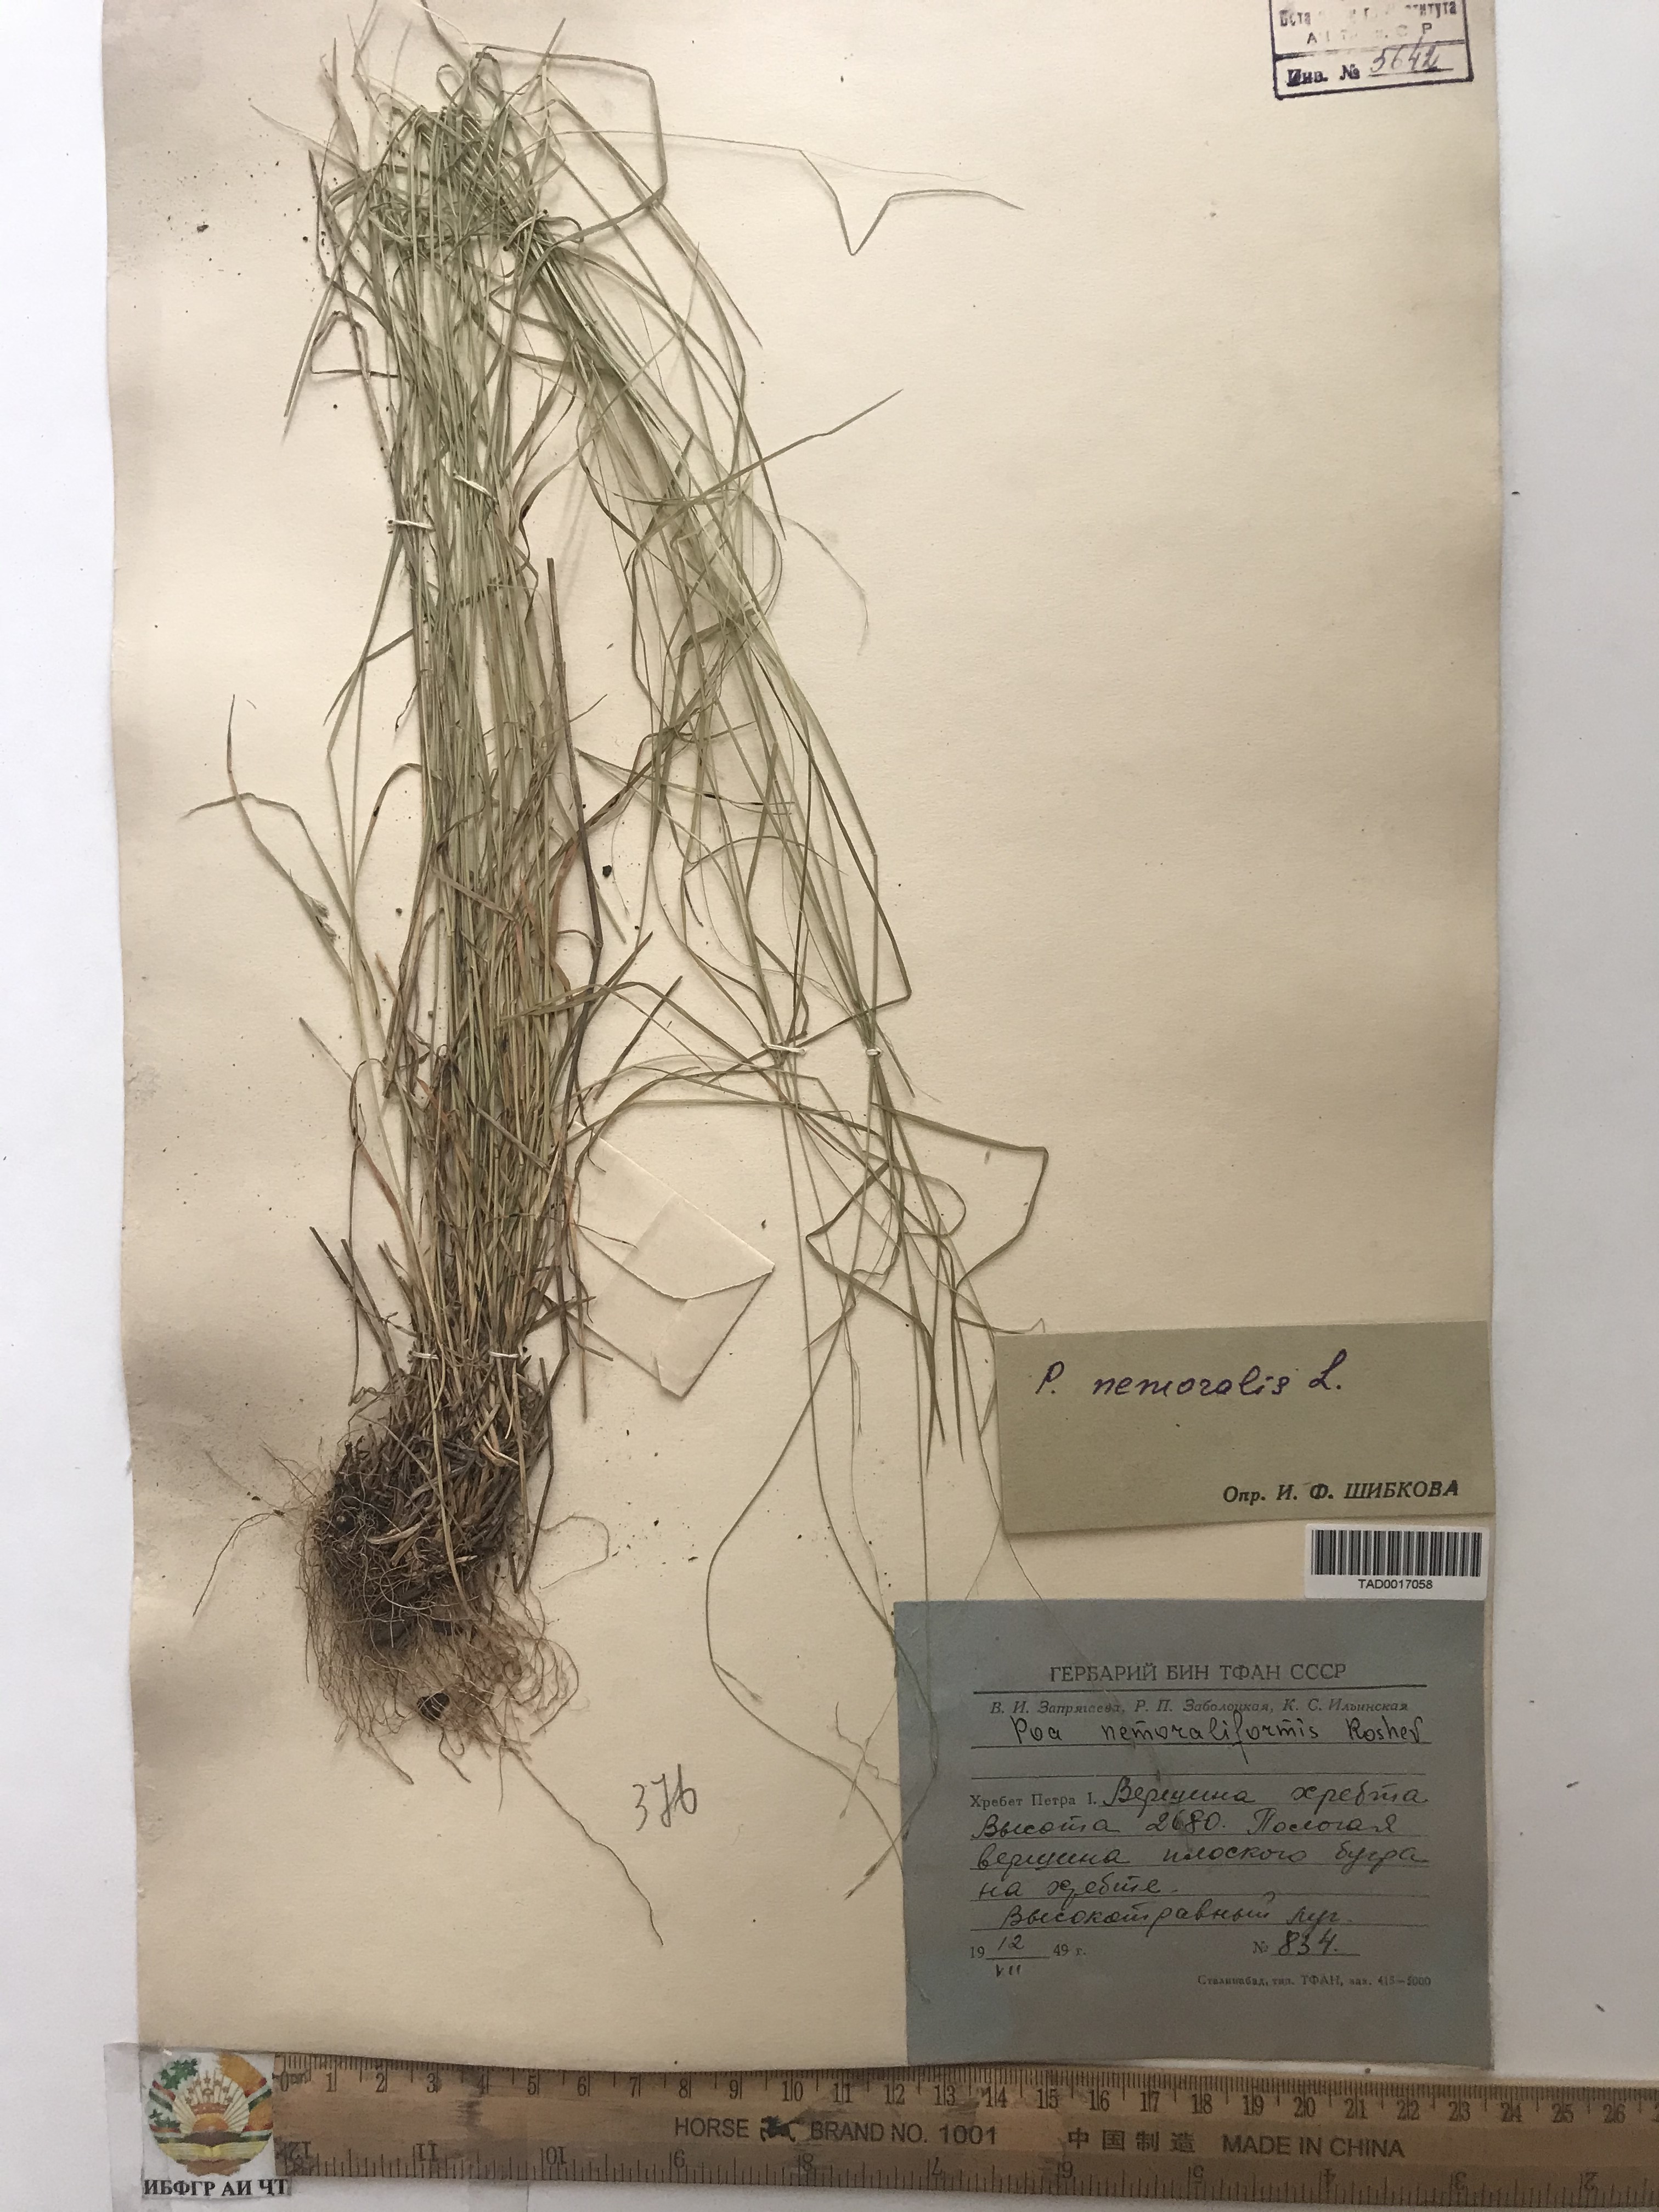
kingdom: Plantae
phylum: Tracheophyta
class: Liliopsida
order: Poales
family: Poaceae
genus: Poa
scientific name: Poa nemoralis
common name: Wood bluegrass
